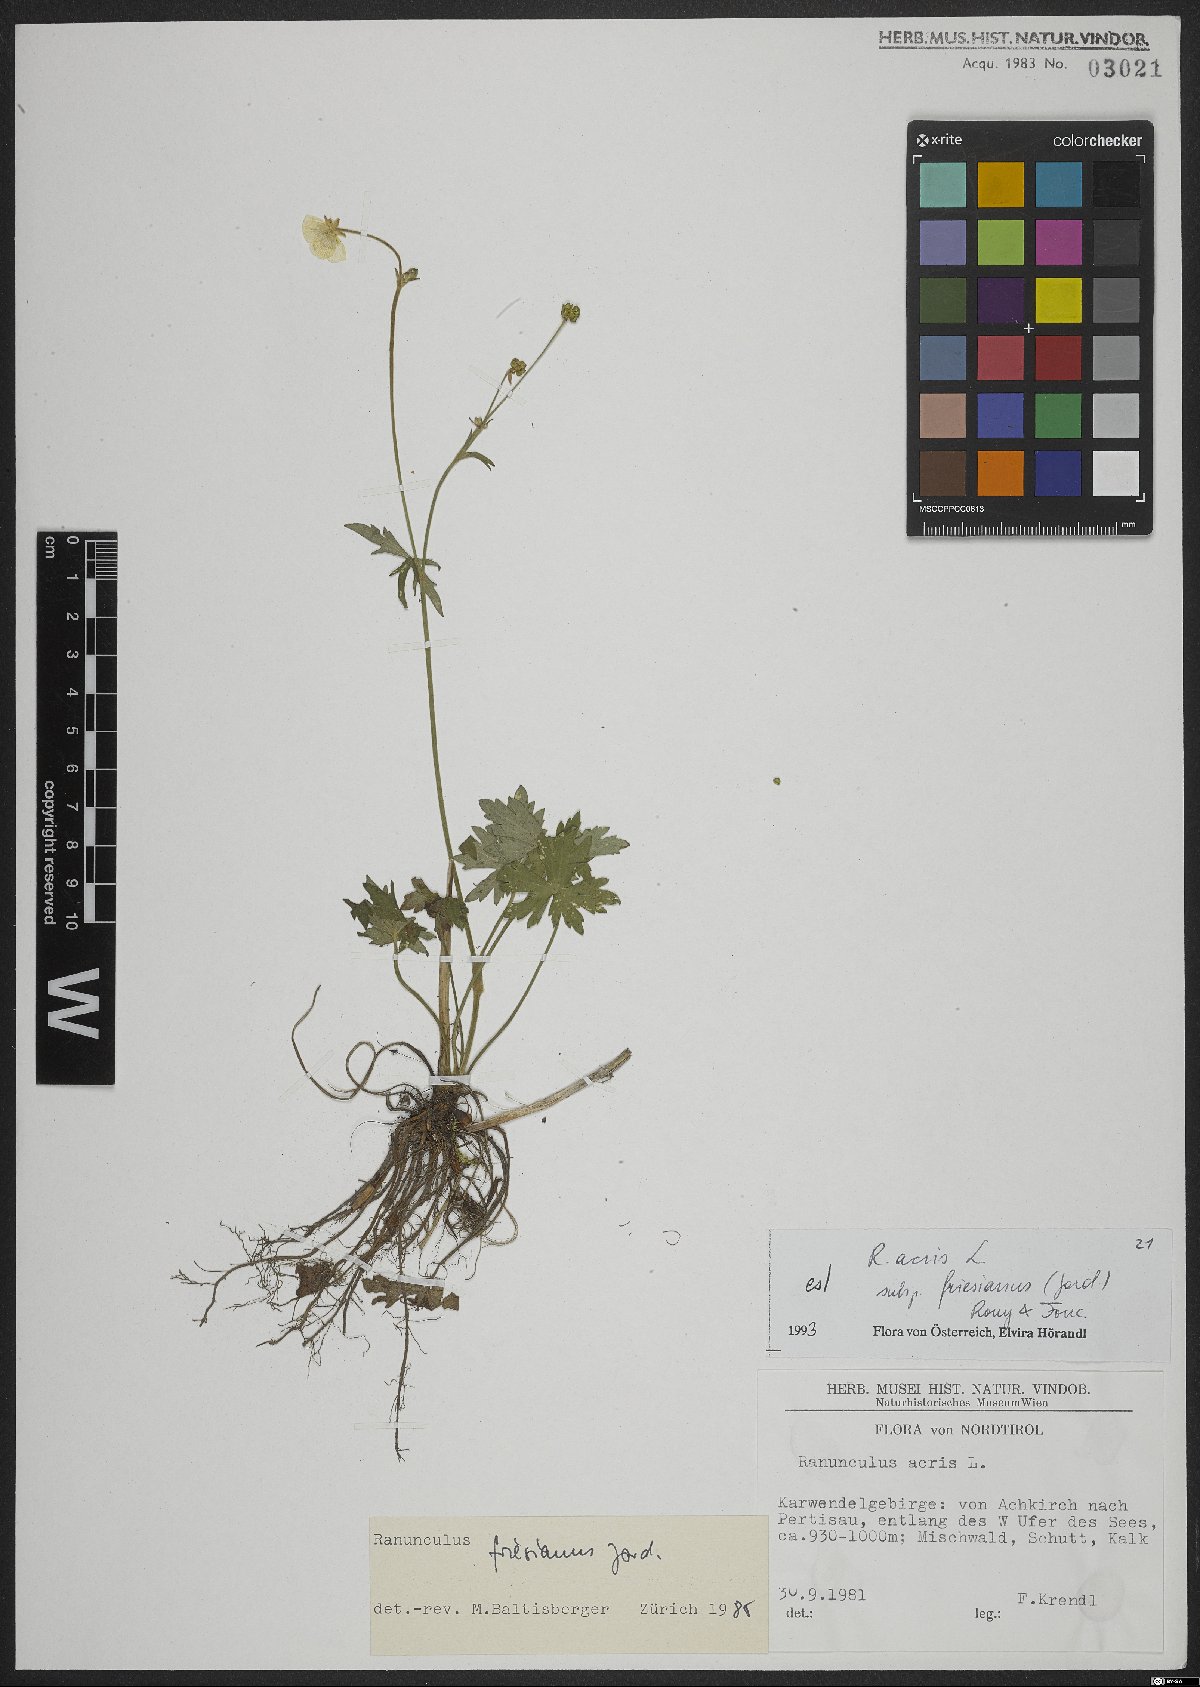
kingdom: Plantae
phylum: Tracheophyta
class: Magnoliopsida
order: Ranunculales
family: Ranunculaceae
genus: Ranunculus
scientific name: Ranunculus acris
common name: Meadow buttercup
